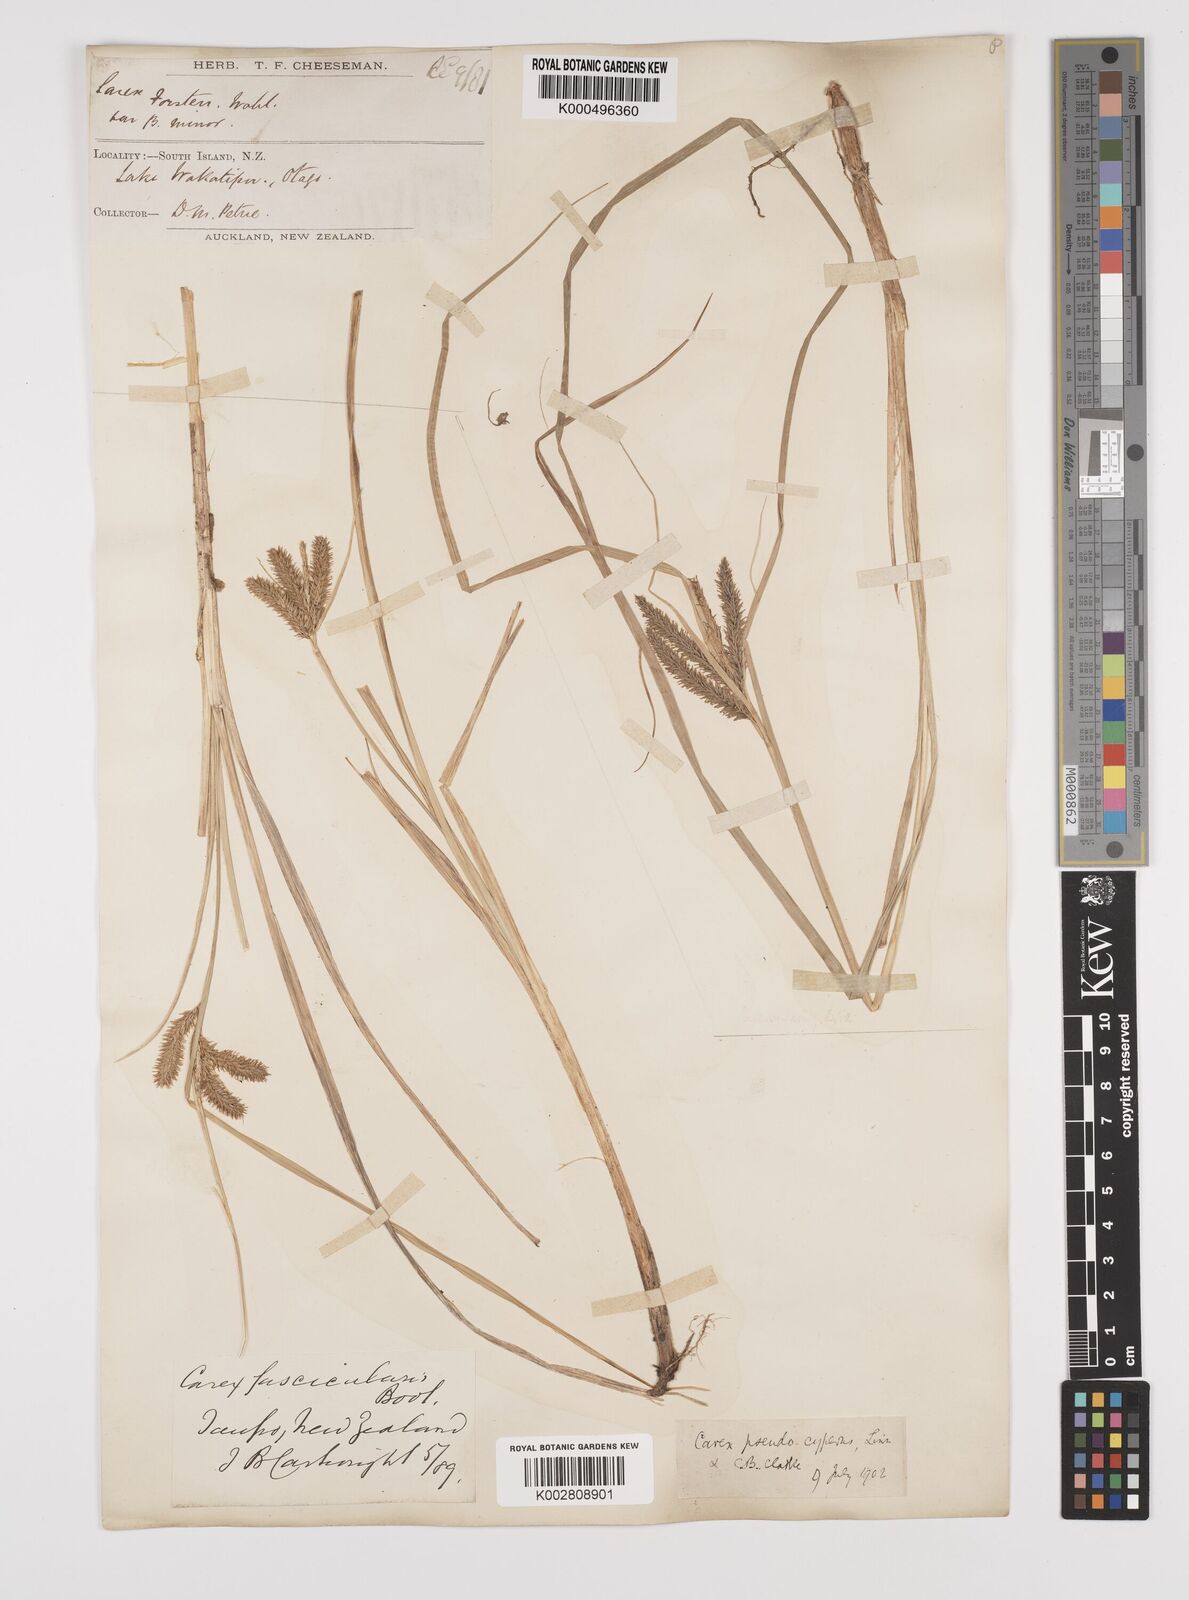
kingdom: Plantae
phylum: Tracheophyta
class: Liliopsida
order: Poales
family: Cyperaceae
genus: Carex
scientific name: Carex maorica
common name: Maori sedge
